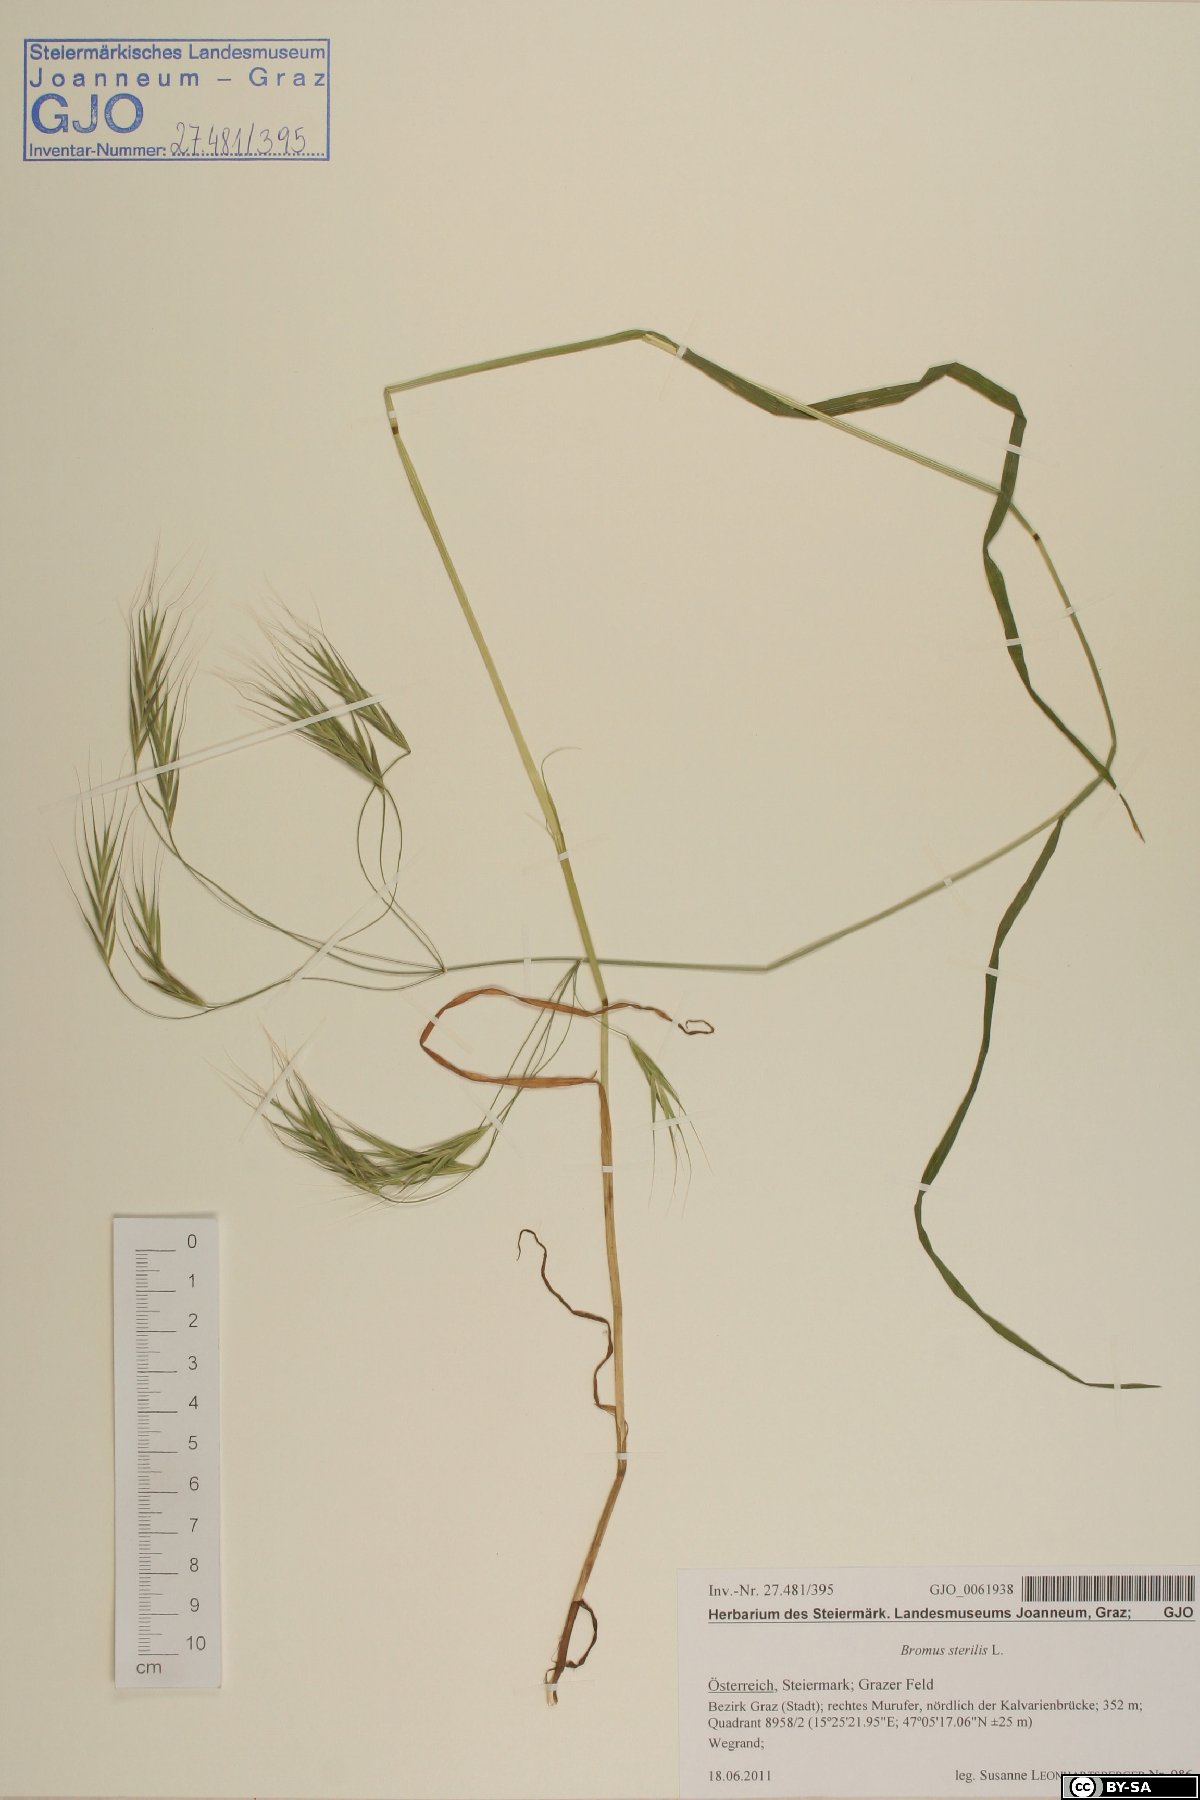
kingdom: Plantae
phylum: Tracheophyta
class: Liliopsida
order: Poales
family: Poaceae
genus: Bromus
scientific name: Bromus sterilis
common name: Poverty brome
